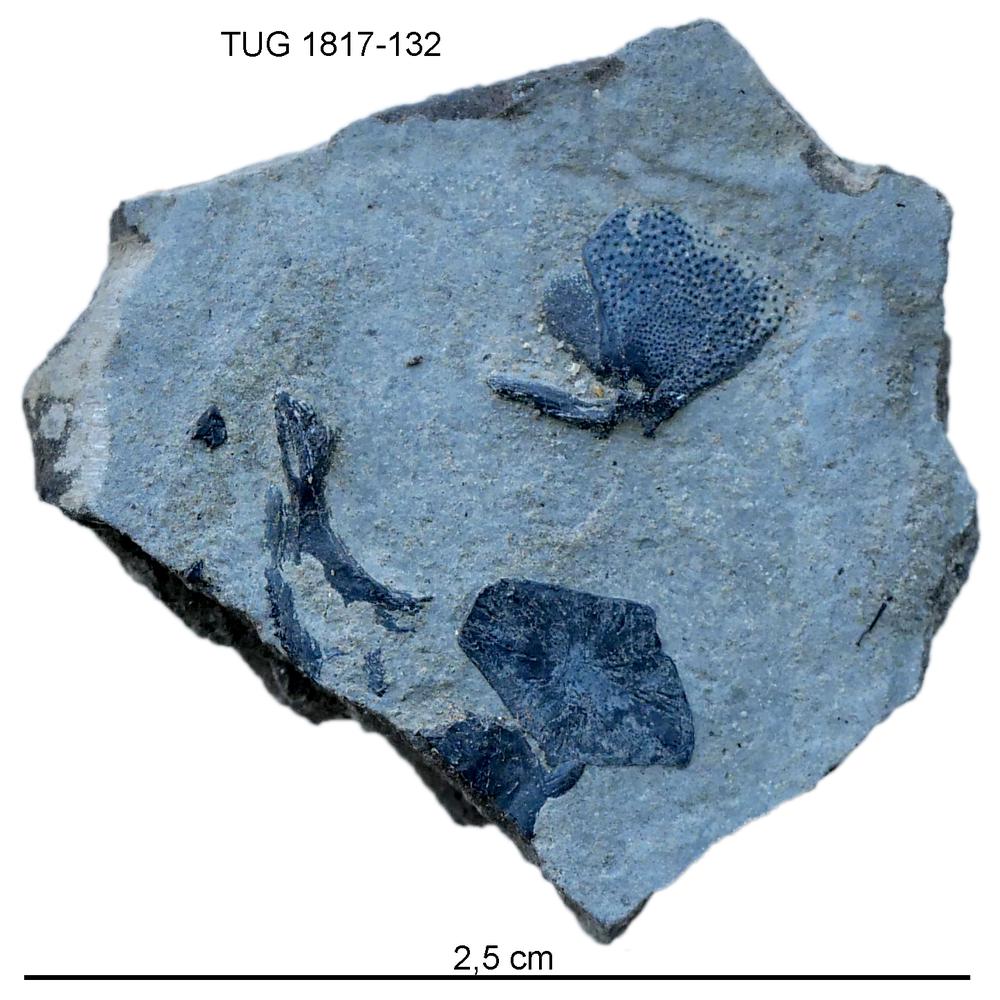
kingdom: Animalia
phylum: Chordata
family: Coccosteidae
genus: Millerosteus
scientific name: Millerosteus minor
